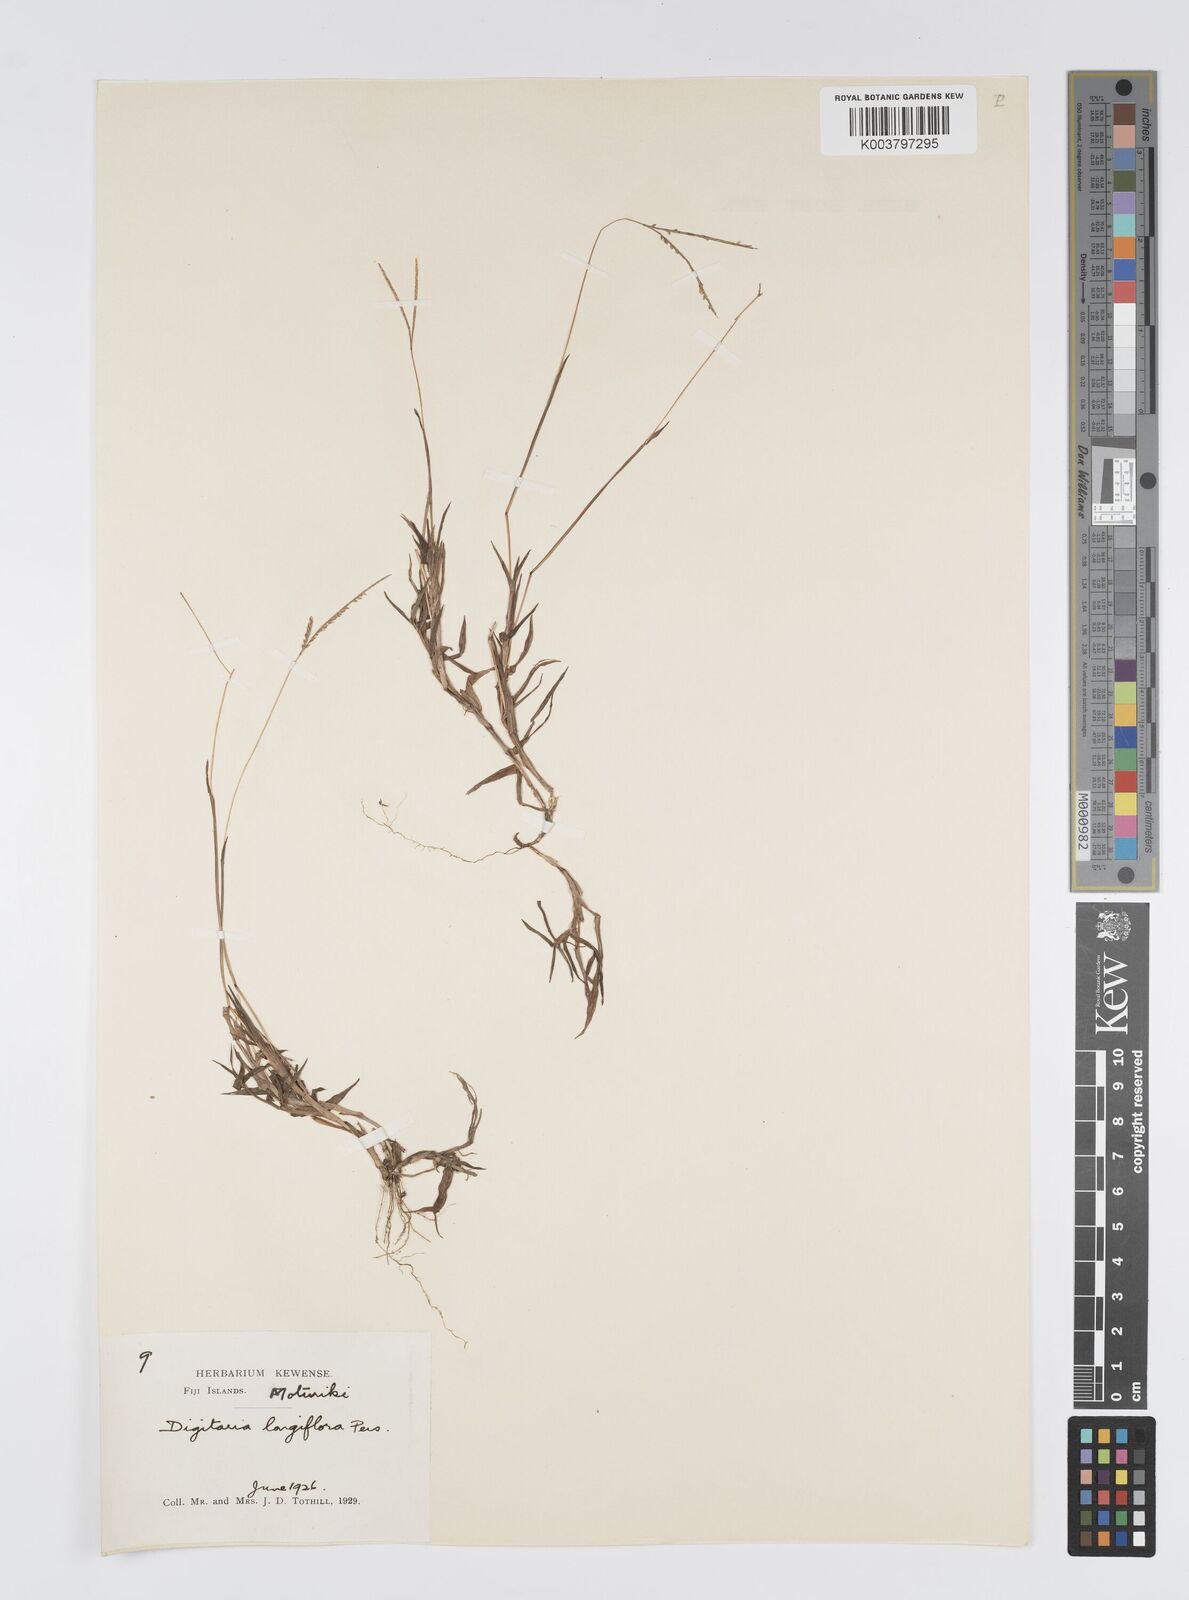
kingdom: Plantae
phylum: Tracheophyta
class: Liliopsida
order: Poales
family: Poaceae
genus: Digitaria
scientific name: Digitaria fuscescens
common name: Yellow crabgrass
